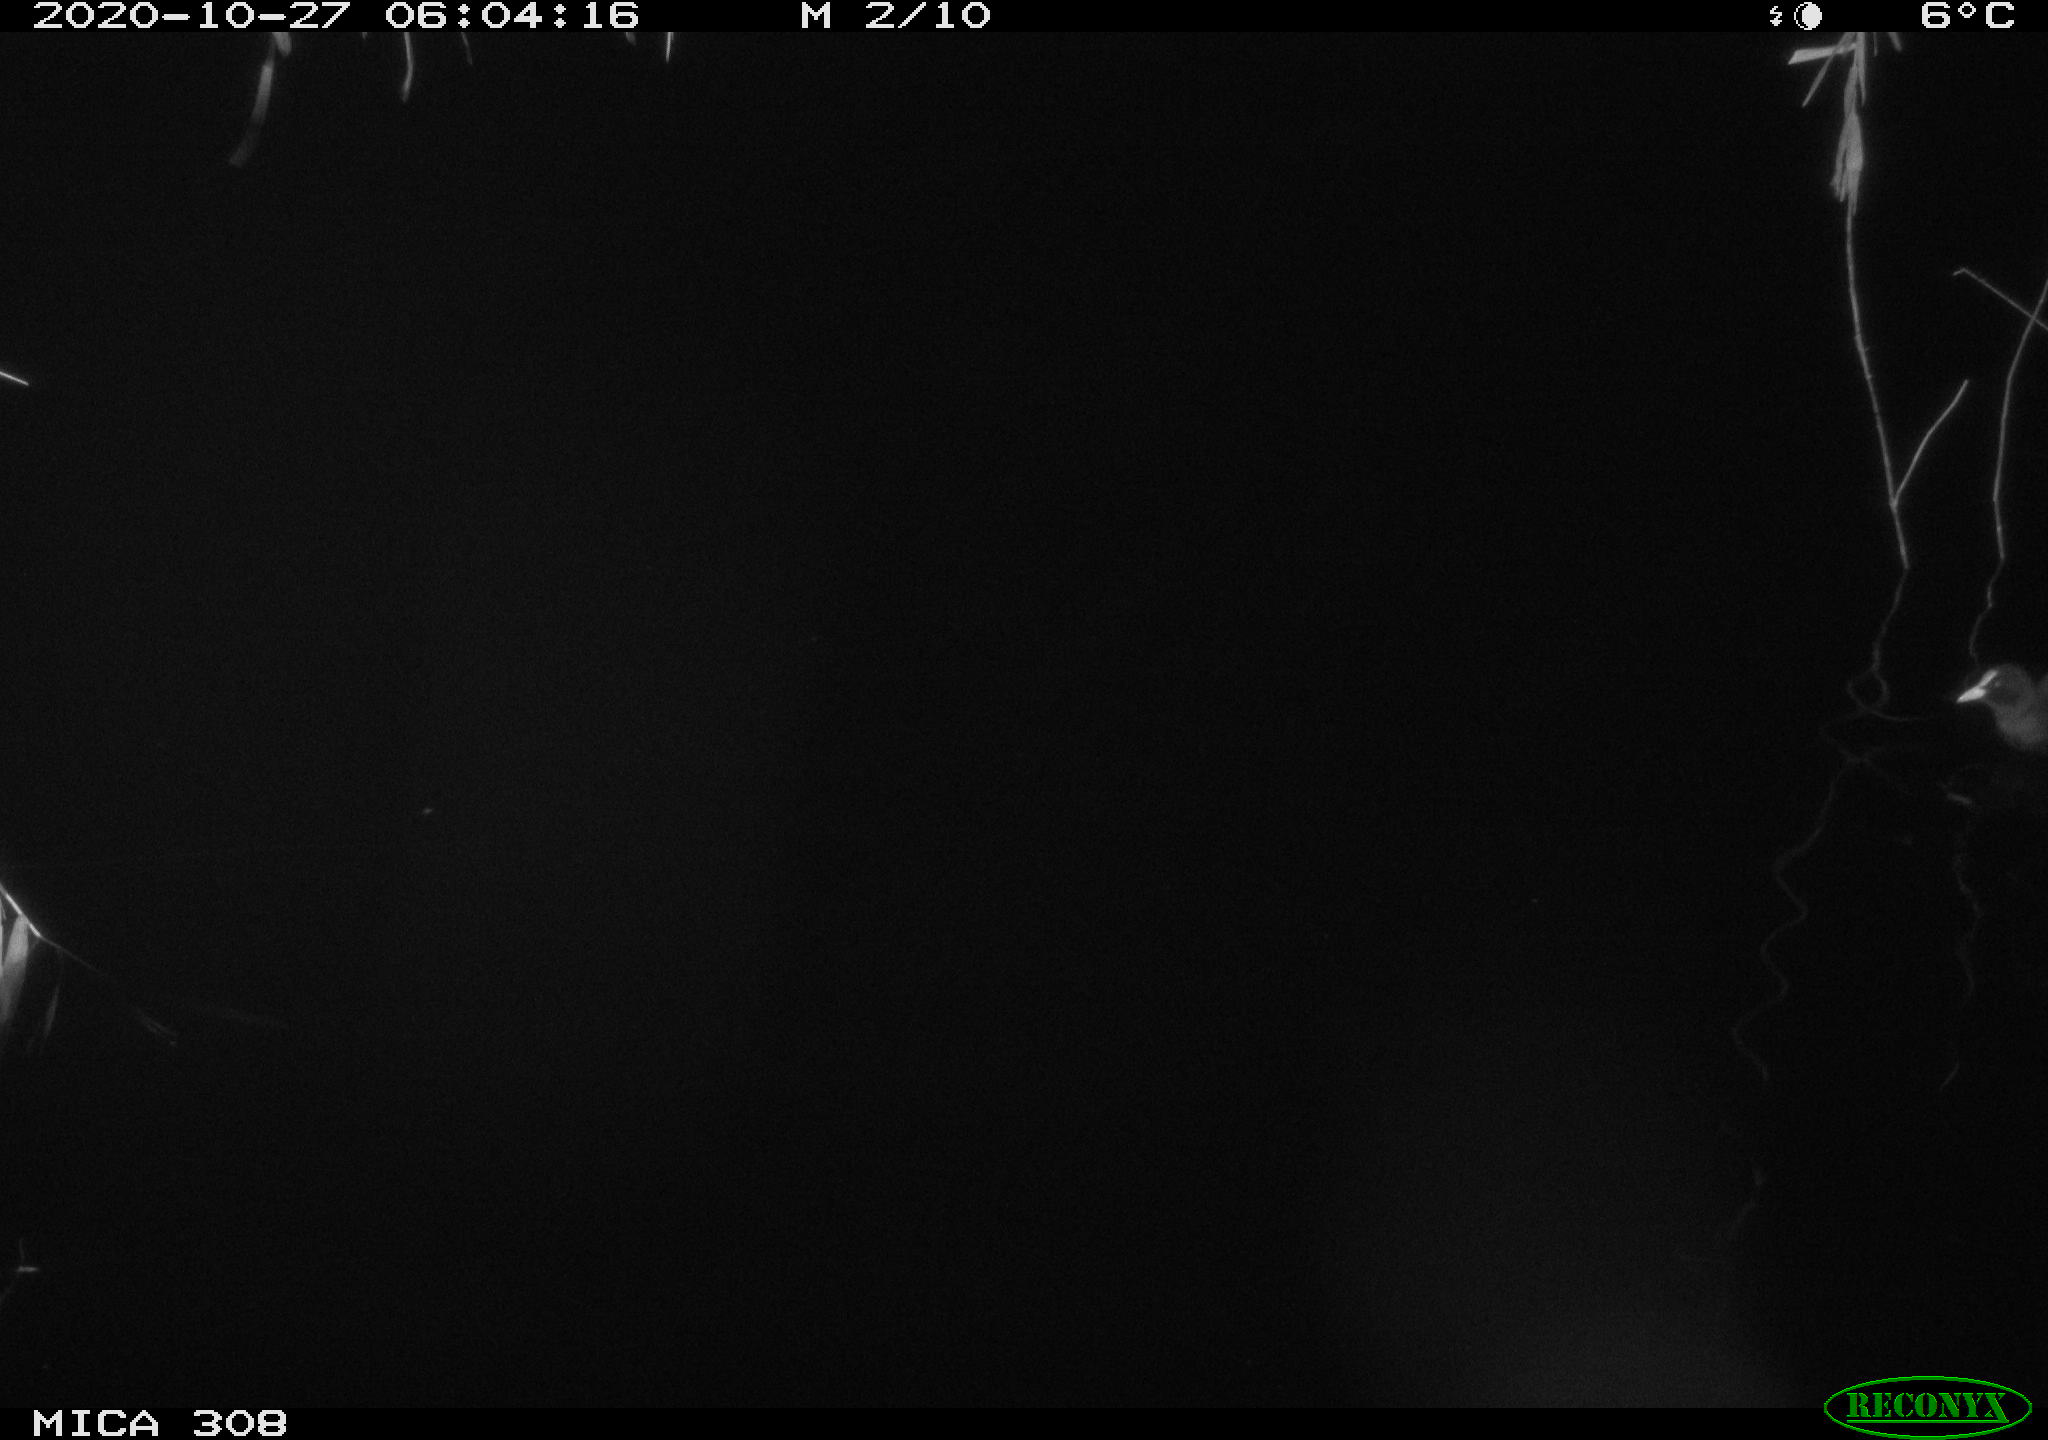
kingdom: Animalia
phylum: Chordata
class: Aves
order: Gruiformes
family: Rallidae
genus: Fulica
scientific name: Fulica atra
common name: Eurasian coot
